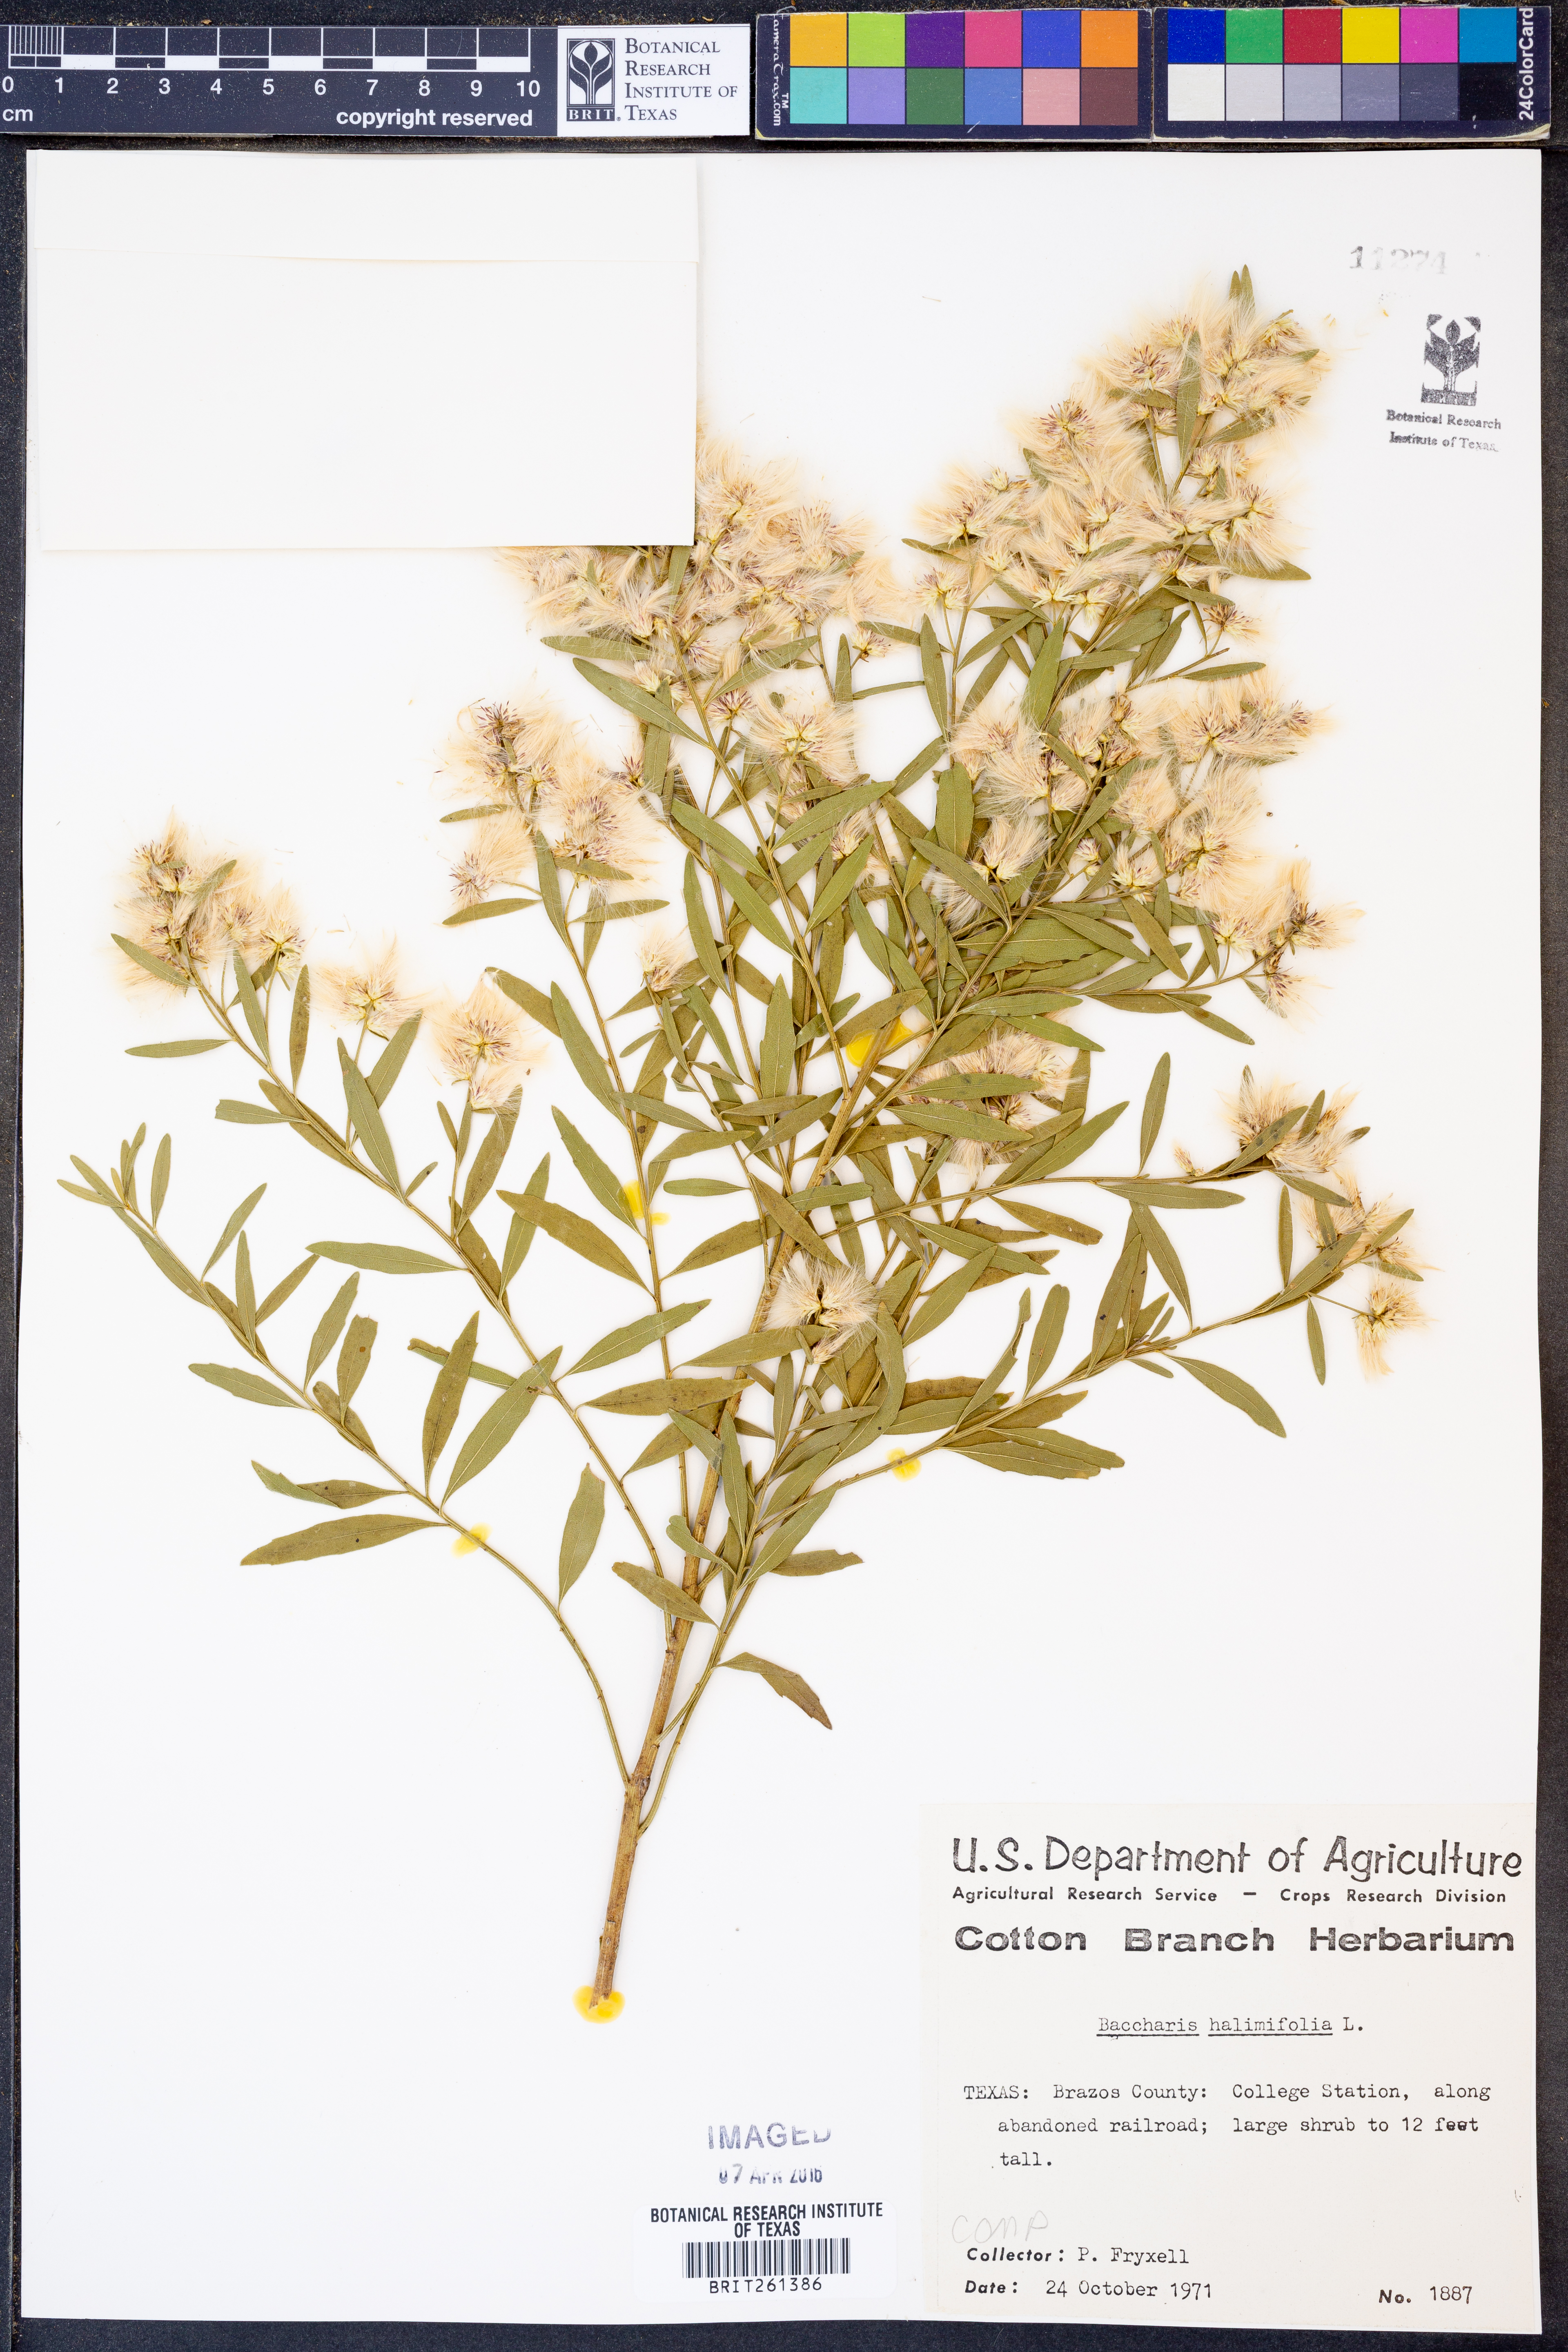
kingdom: Plantae
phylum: Tracheophyta
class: Magnoliopsida
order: Asterales
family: Asteraceae
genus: Nidorella
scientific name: Nidorella ivifolia
